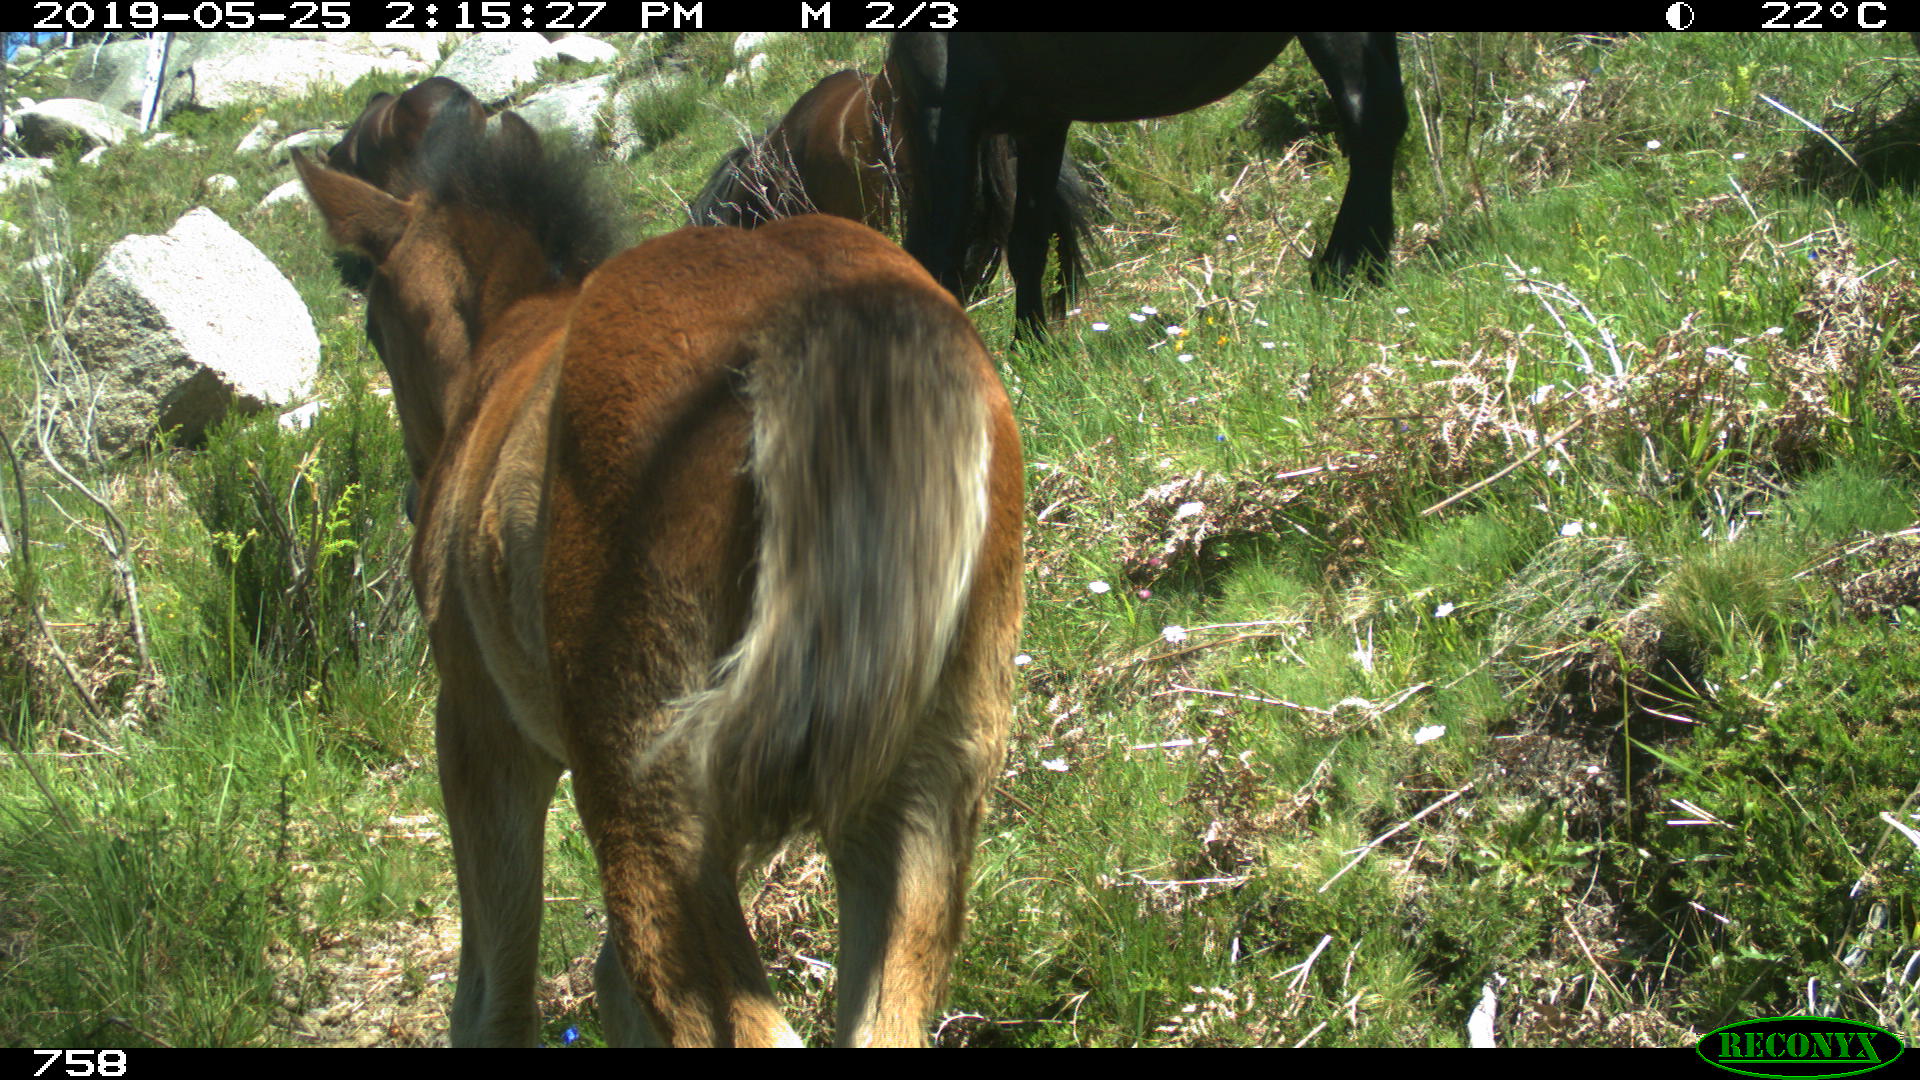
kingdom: Animalia
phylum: Chordata
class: Mammalia
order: Perissodactyla
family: Equidae
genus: Equus
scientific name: Equus caballus
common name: Horse
